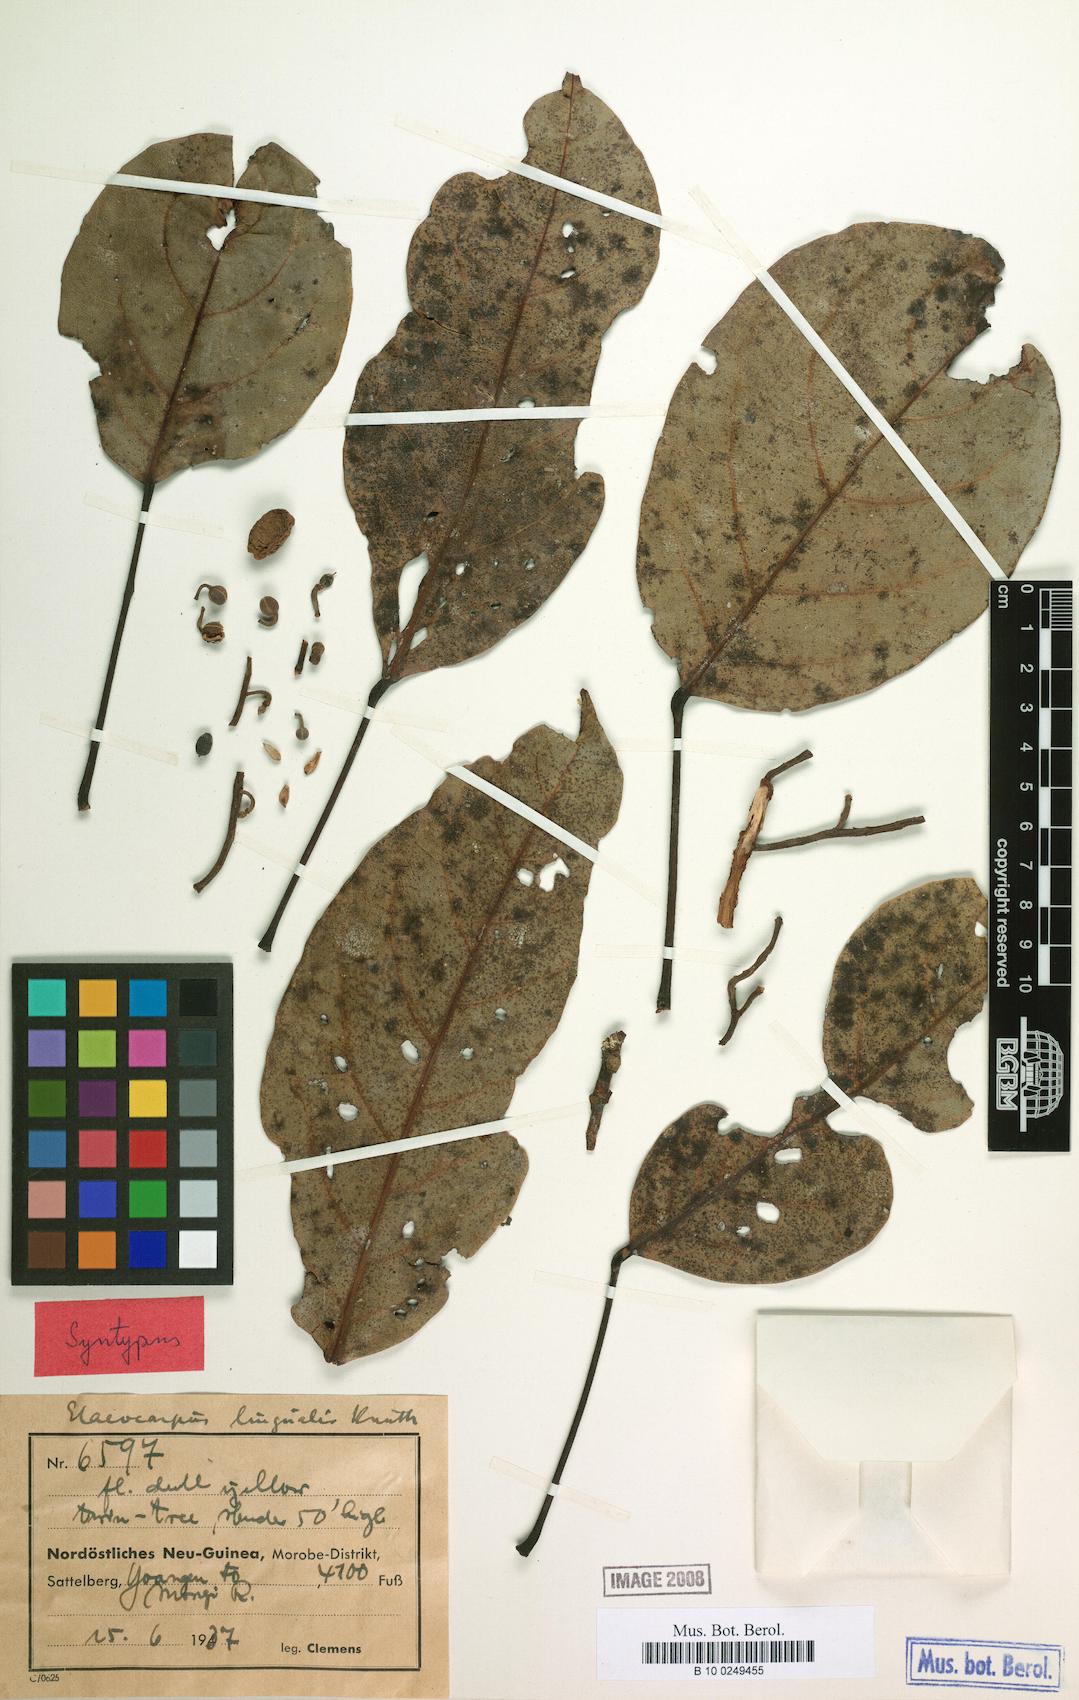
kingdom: Plantae
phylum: Tracheophyta
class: Magnoliopsida
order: Oxalidales
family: Elaeocarpaceae
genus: Elaeocarpus
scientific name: Elaeocarpus lingualis
